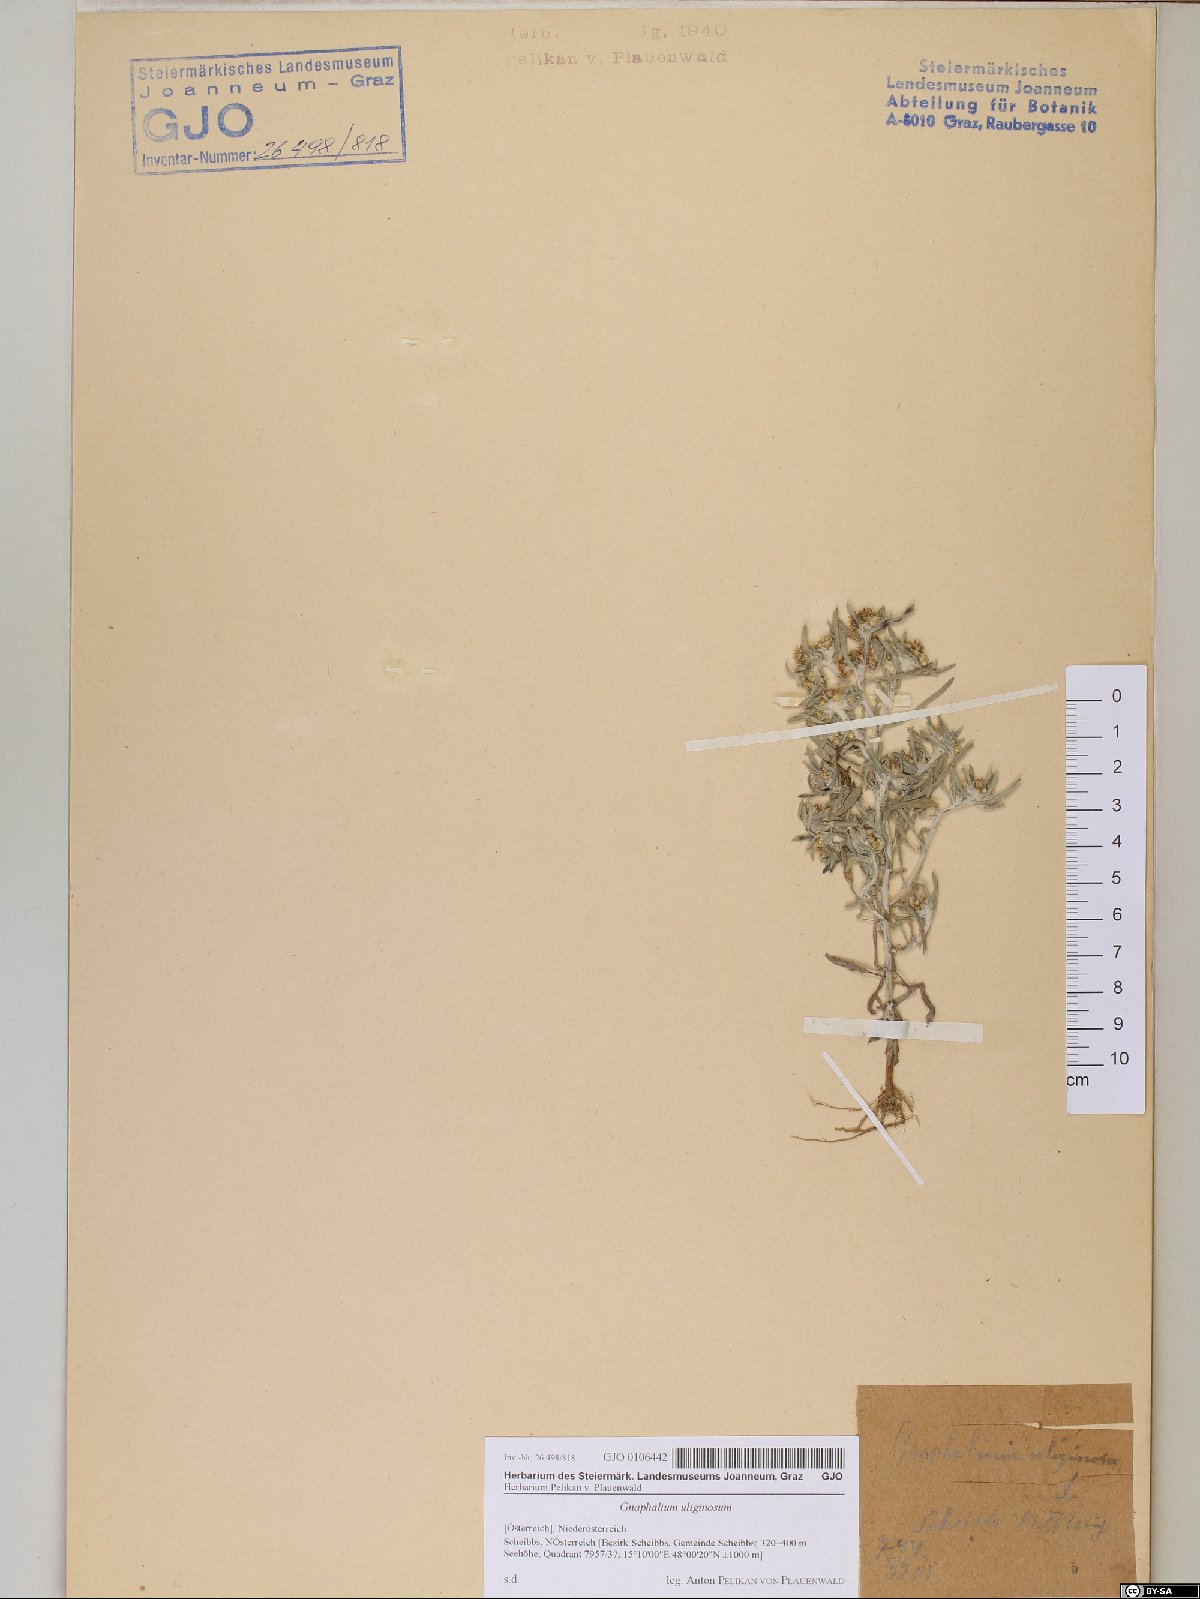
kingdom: Plantae
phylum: Tracheophyta
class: Magnoliopsida
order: Asterales
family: Asteraceae
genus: Gnaphalium
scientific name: Gnaphalium uliginosum
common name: Marsh cudweed
